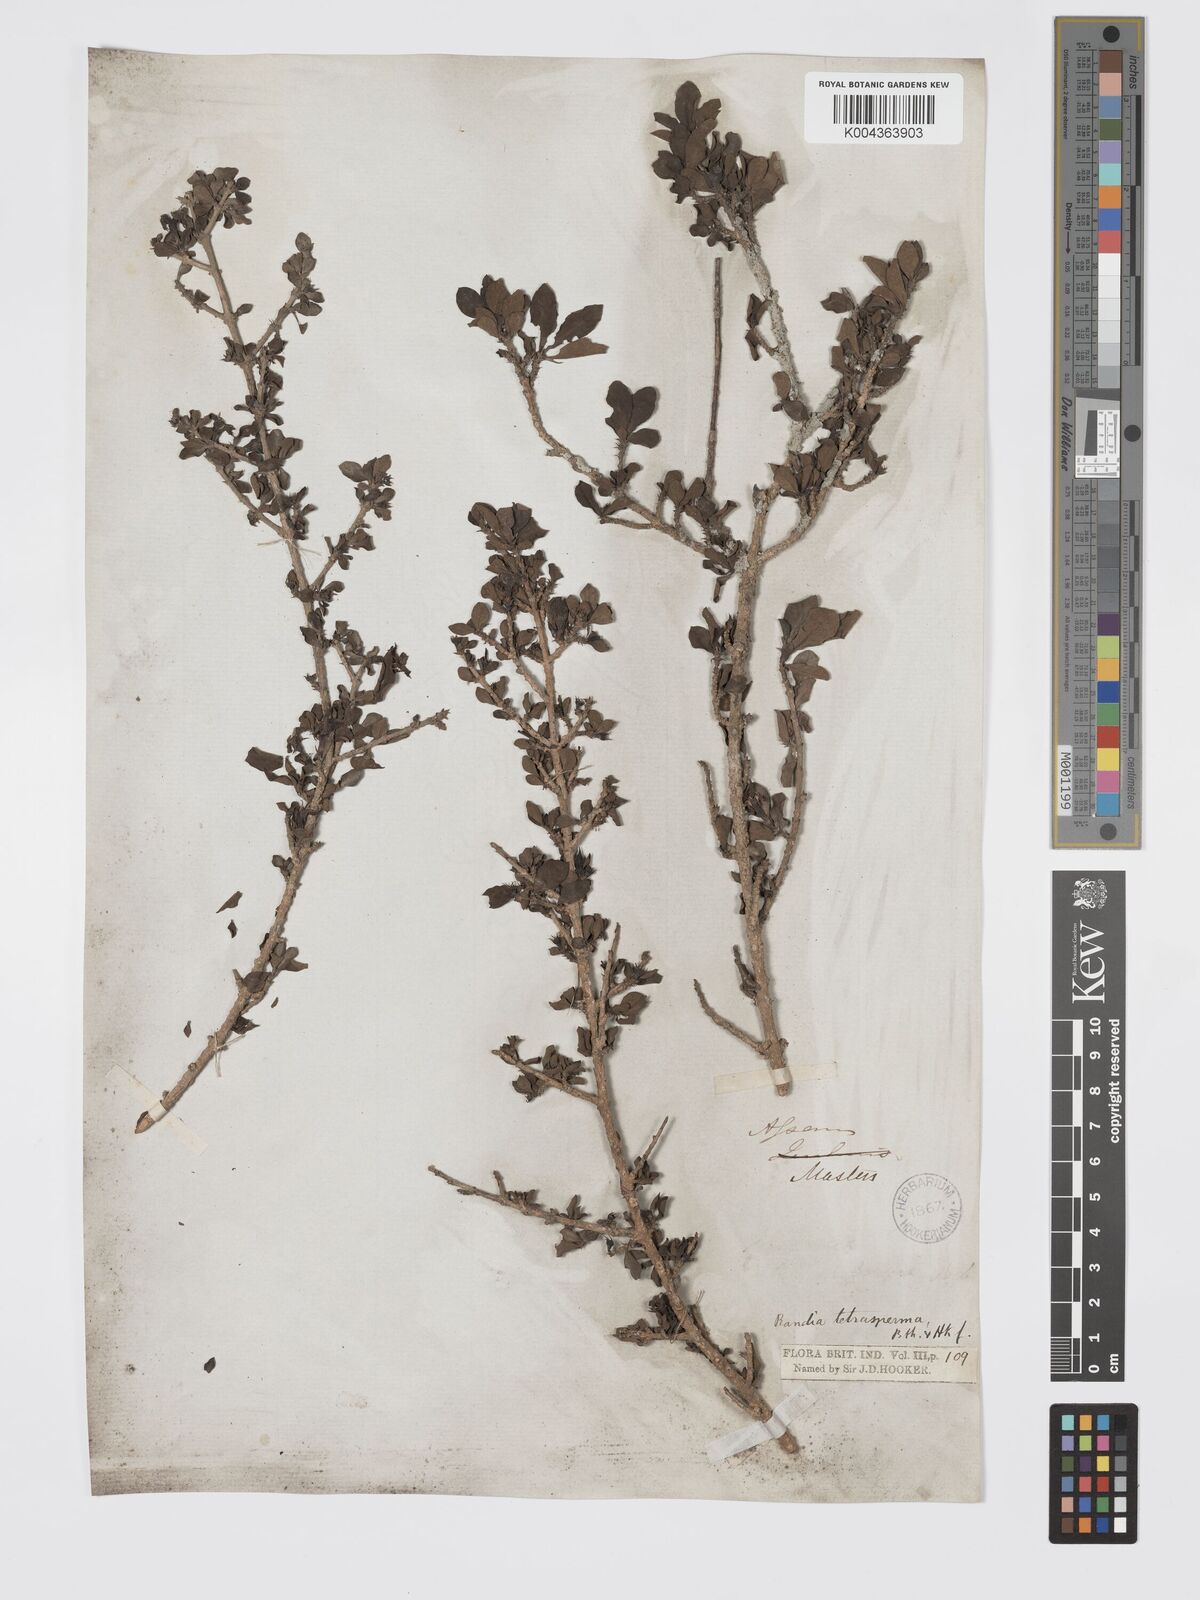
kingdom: Plantae
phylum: Tracheophyta
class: Magnoliopsida
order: Gentianales
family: Rubiaceae
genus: Himalrandia
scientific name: Himalrandia tetrasperma
